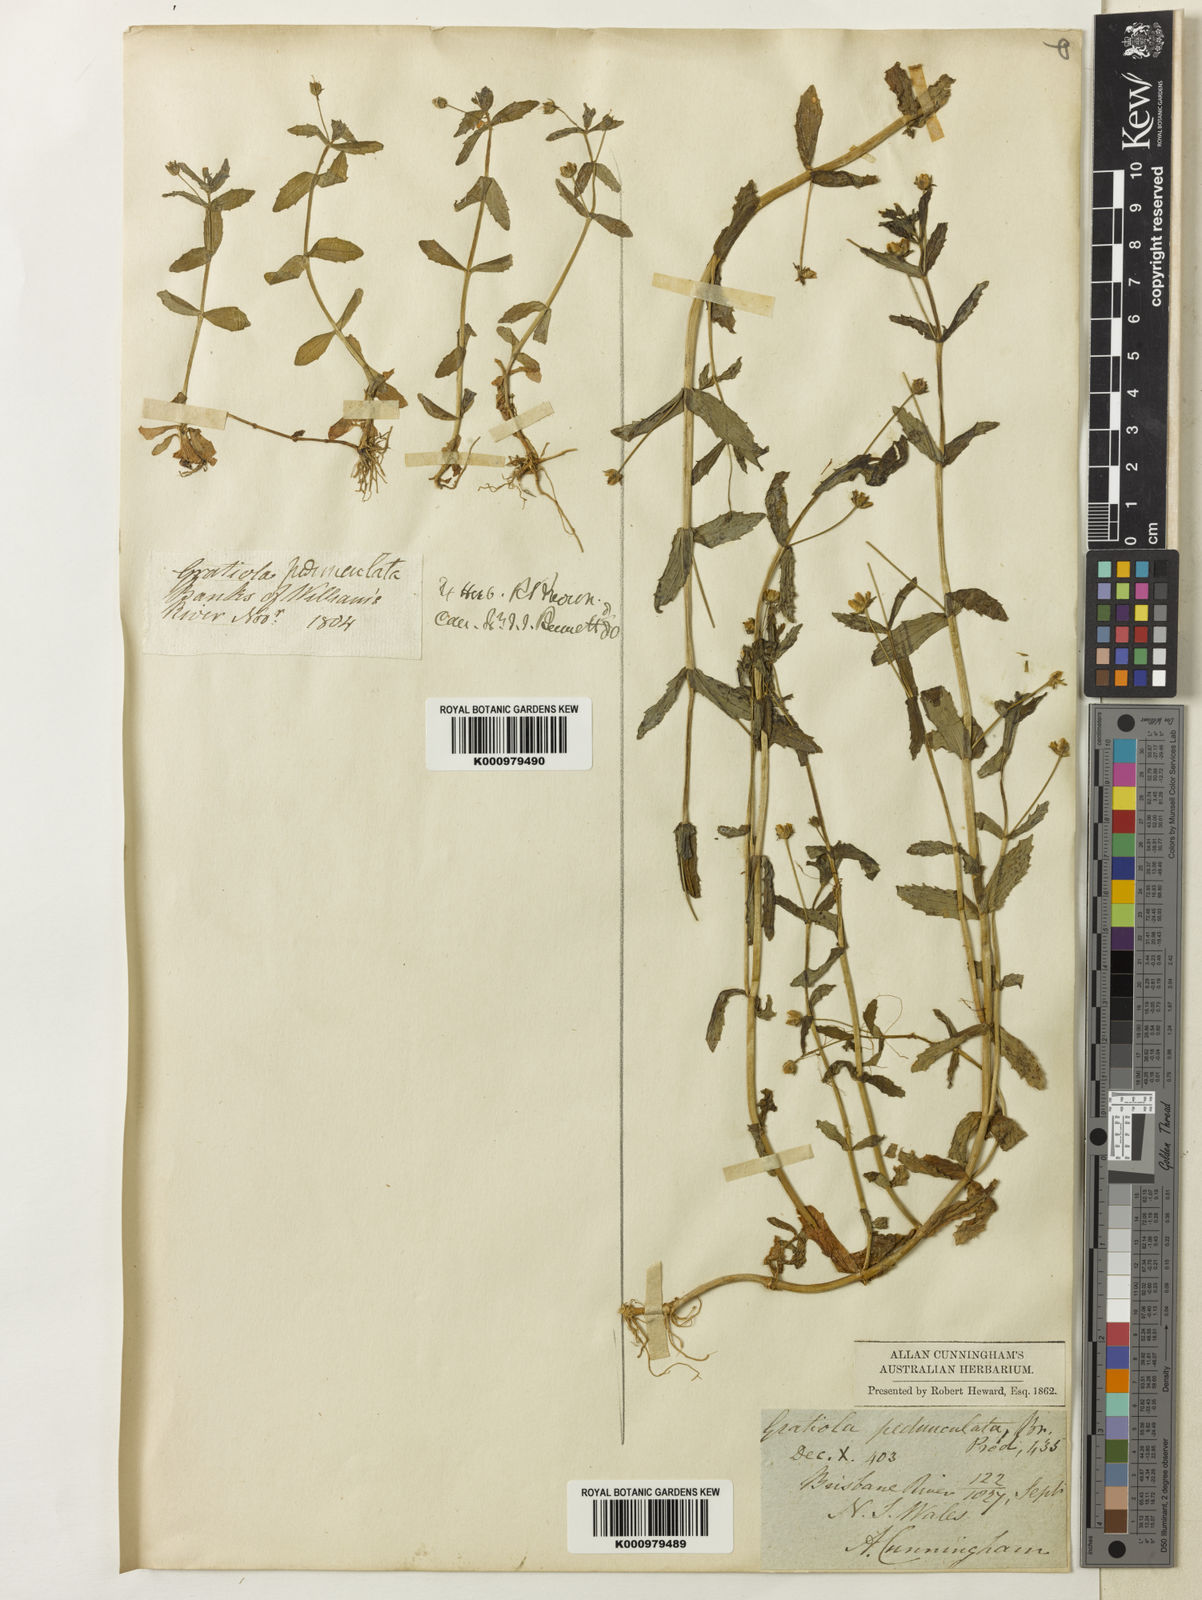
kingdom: Plantae
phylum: Tracheophyta
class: Magnoliopsida
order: Lamiales
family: Plantaginaceae
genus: Gratiola
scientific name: Gratiola pedunculata
